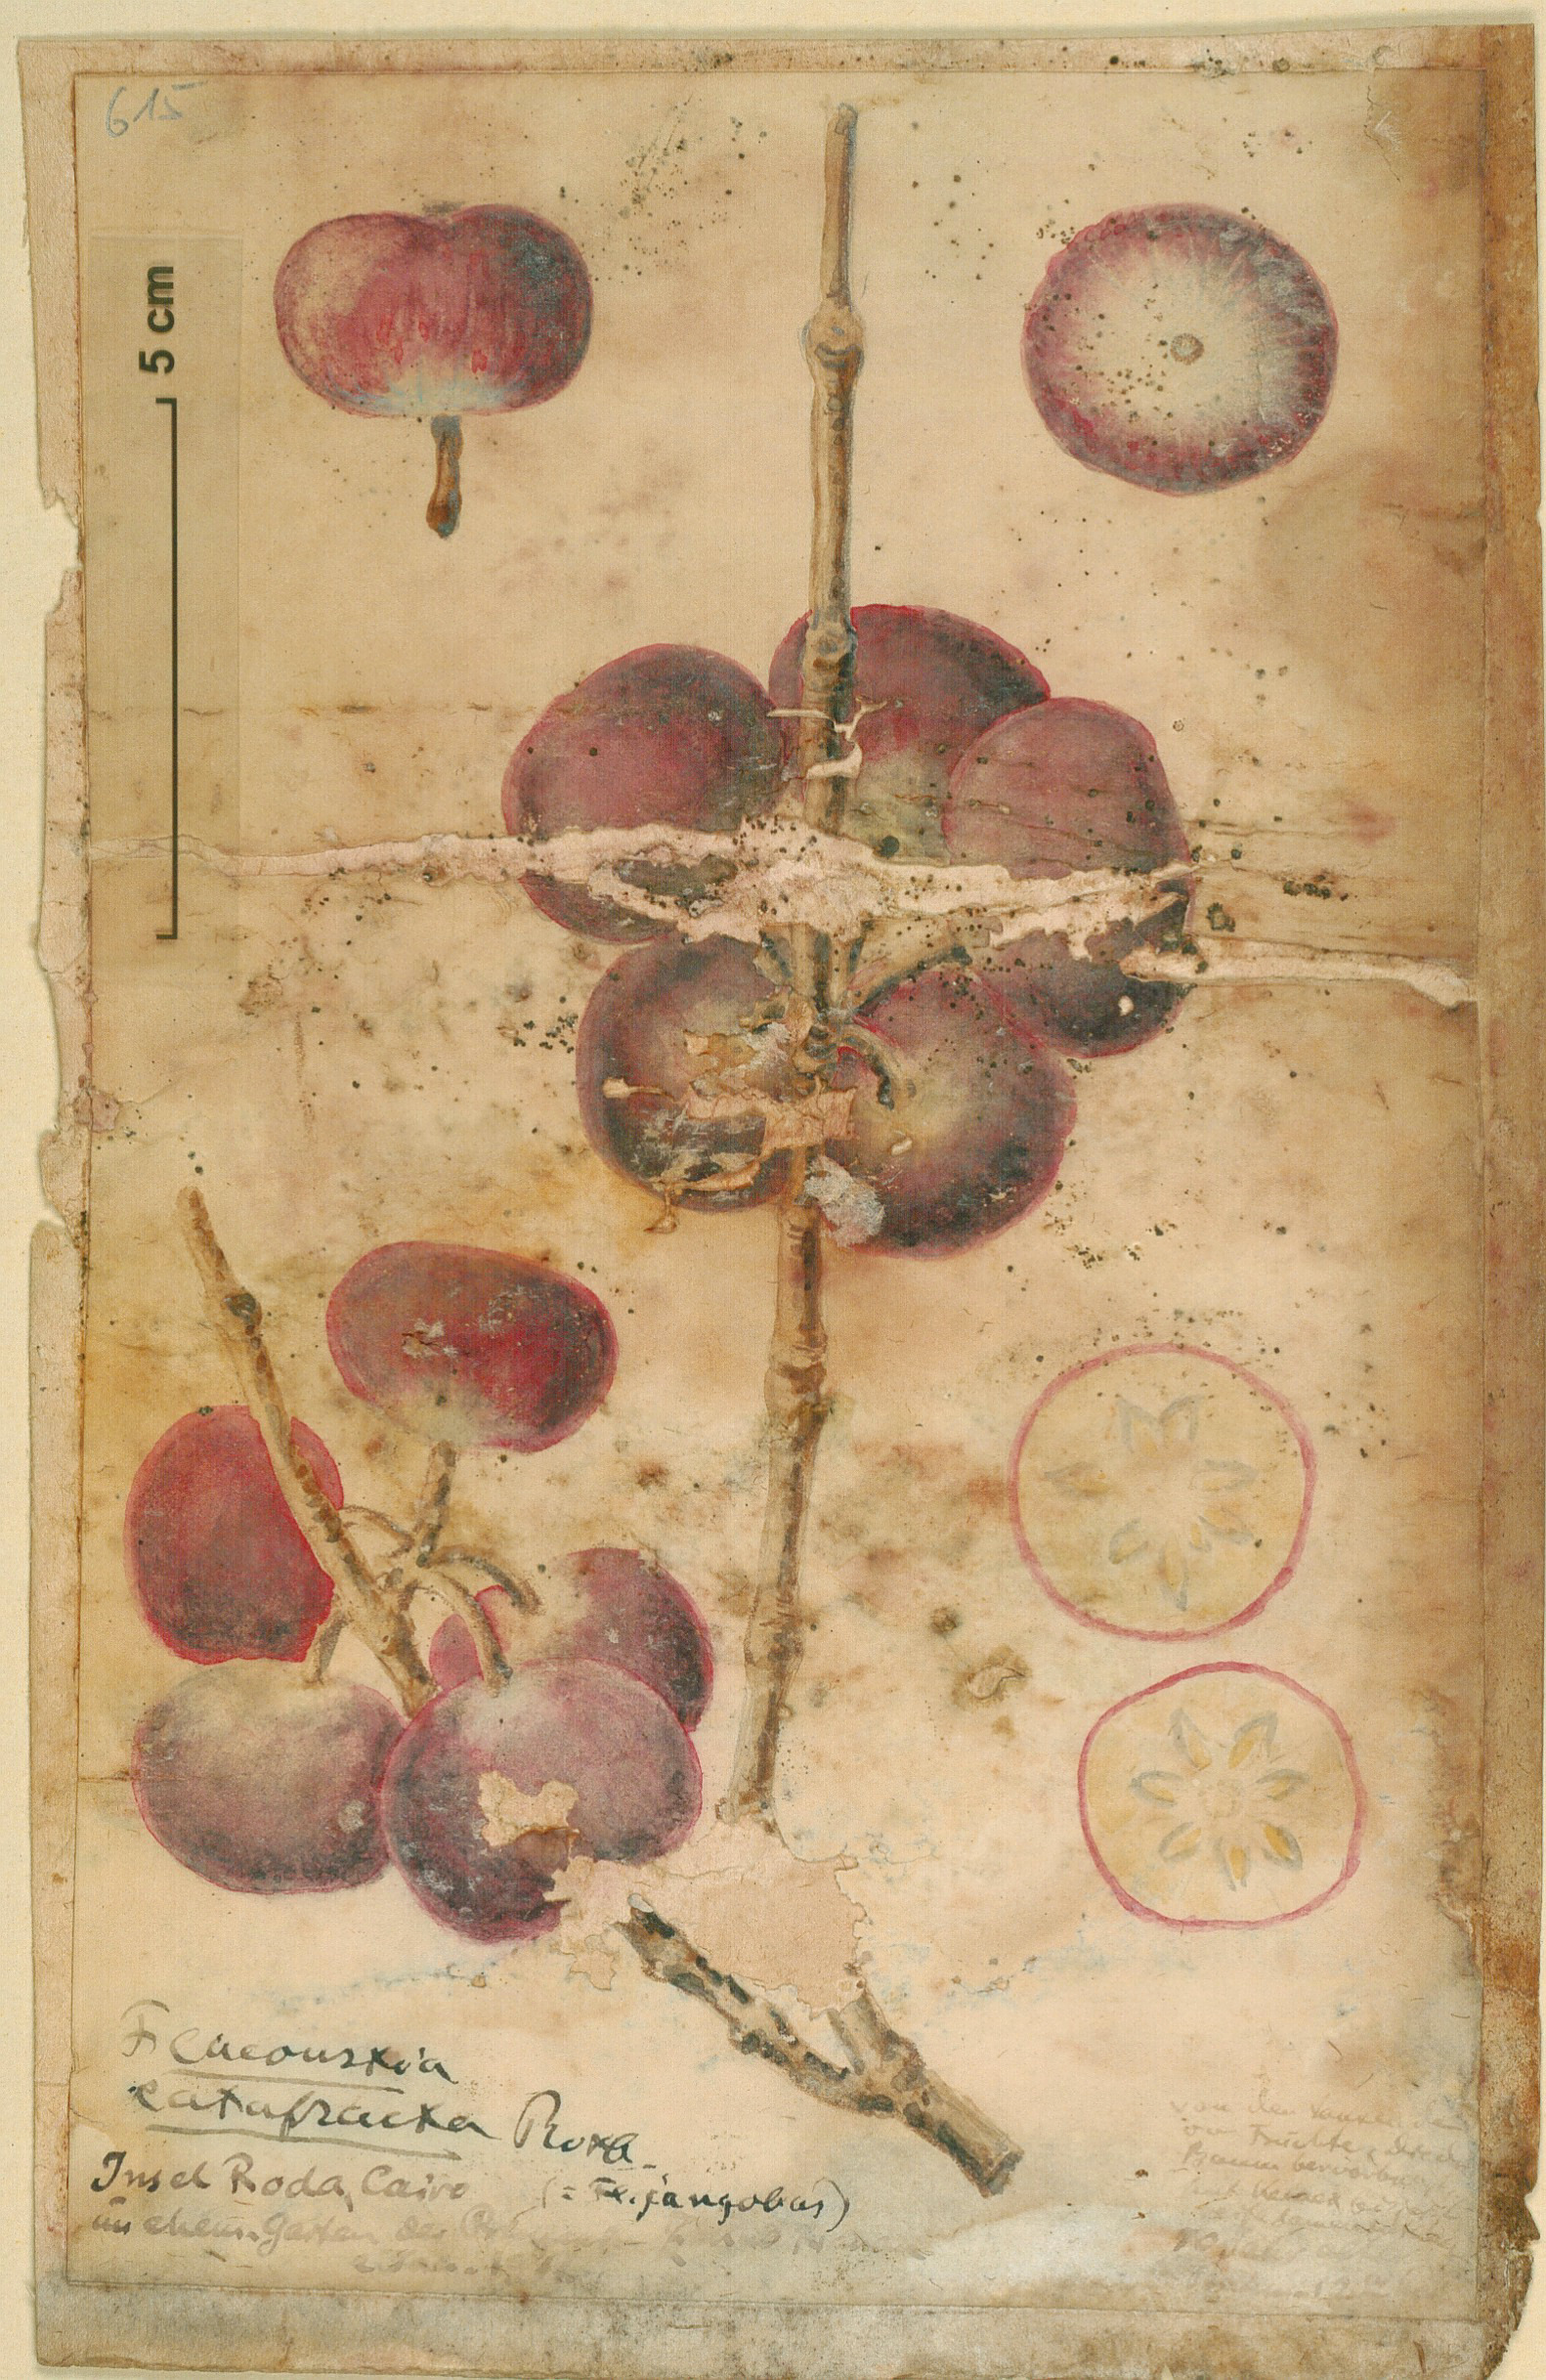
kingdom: Plantae
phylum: Tracheophyta
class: Magnoliopsida
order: Malpighiales
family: Salicaceae
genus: Flacourtia
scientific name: Flacourtia jangomas
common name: Indian-plum
